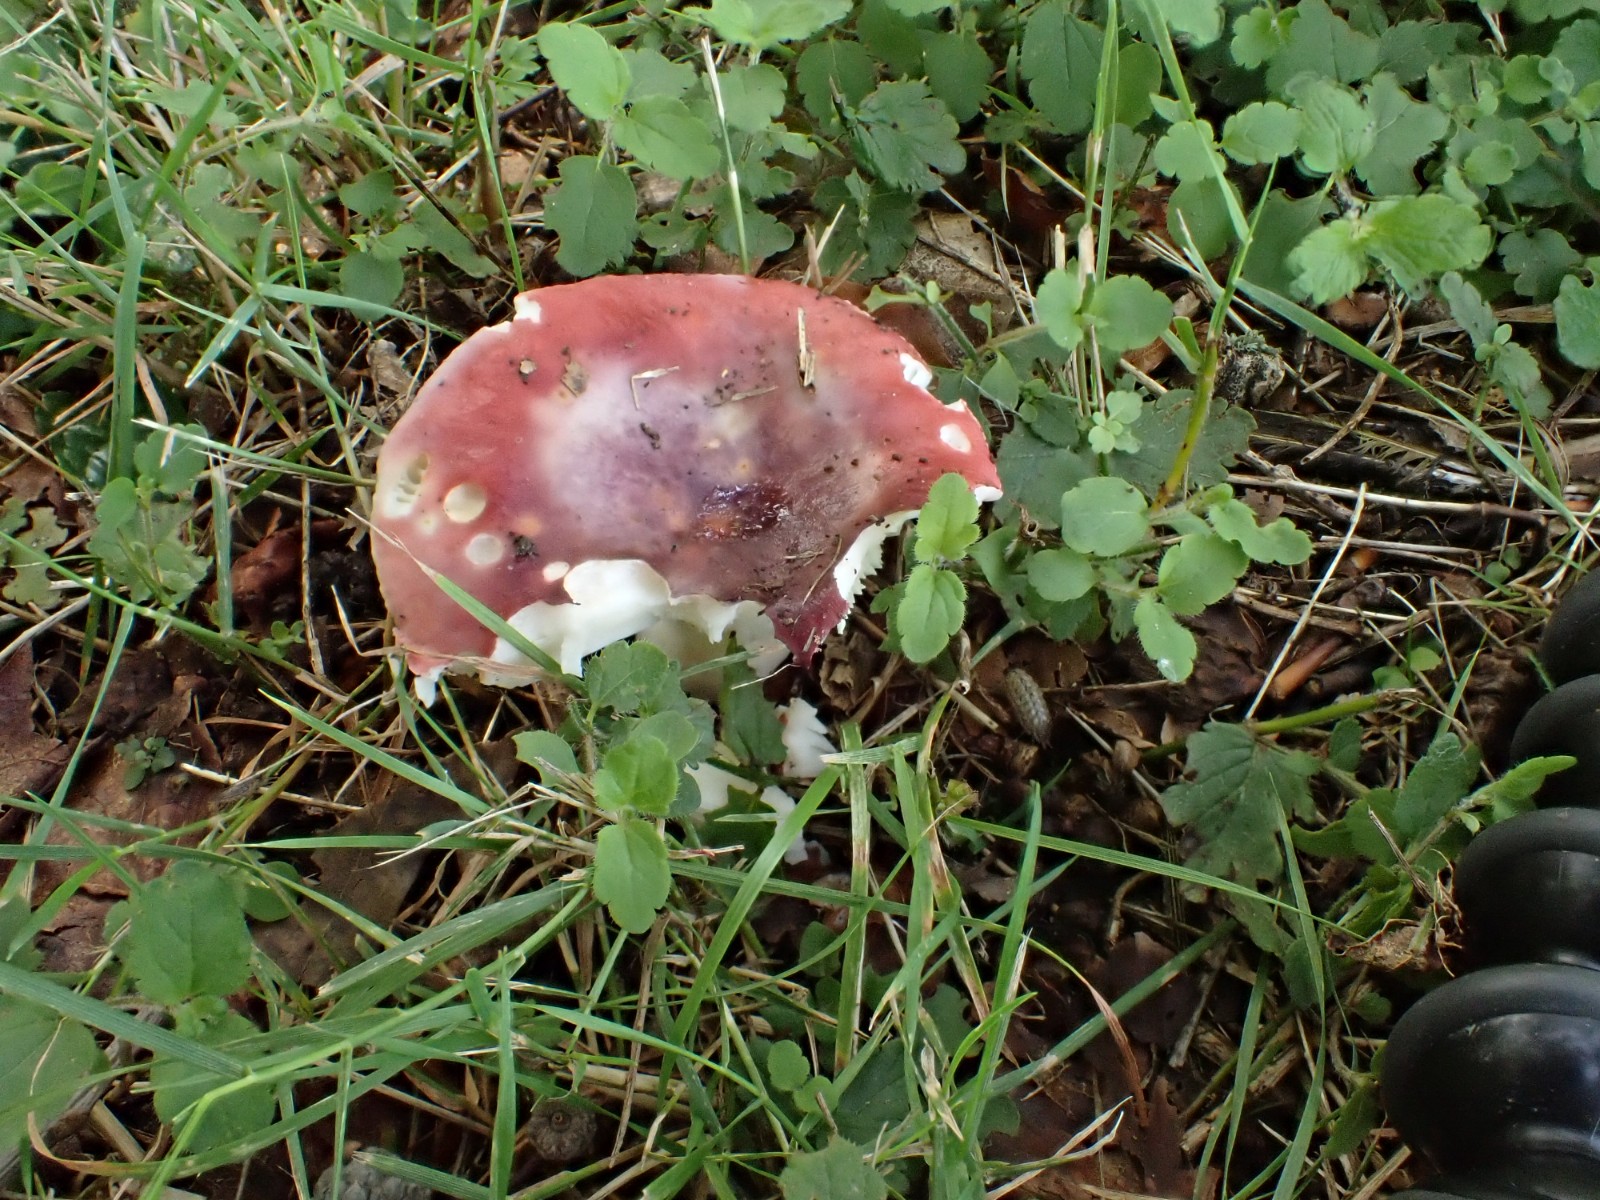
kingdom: Fungi
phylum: Basidiomycota
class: Agaricomycetes
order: Russulales
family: Russulaceae
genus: Russula
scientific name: Russula atropurpurea
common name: purpurbroget skørhat
